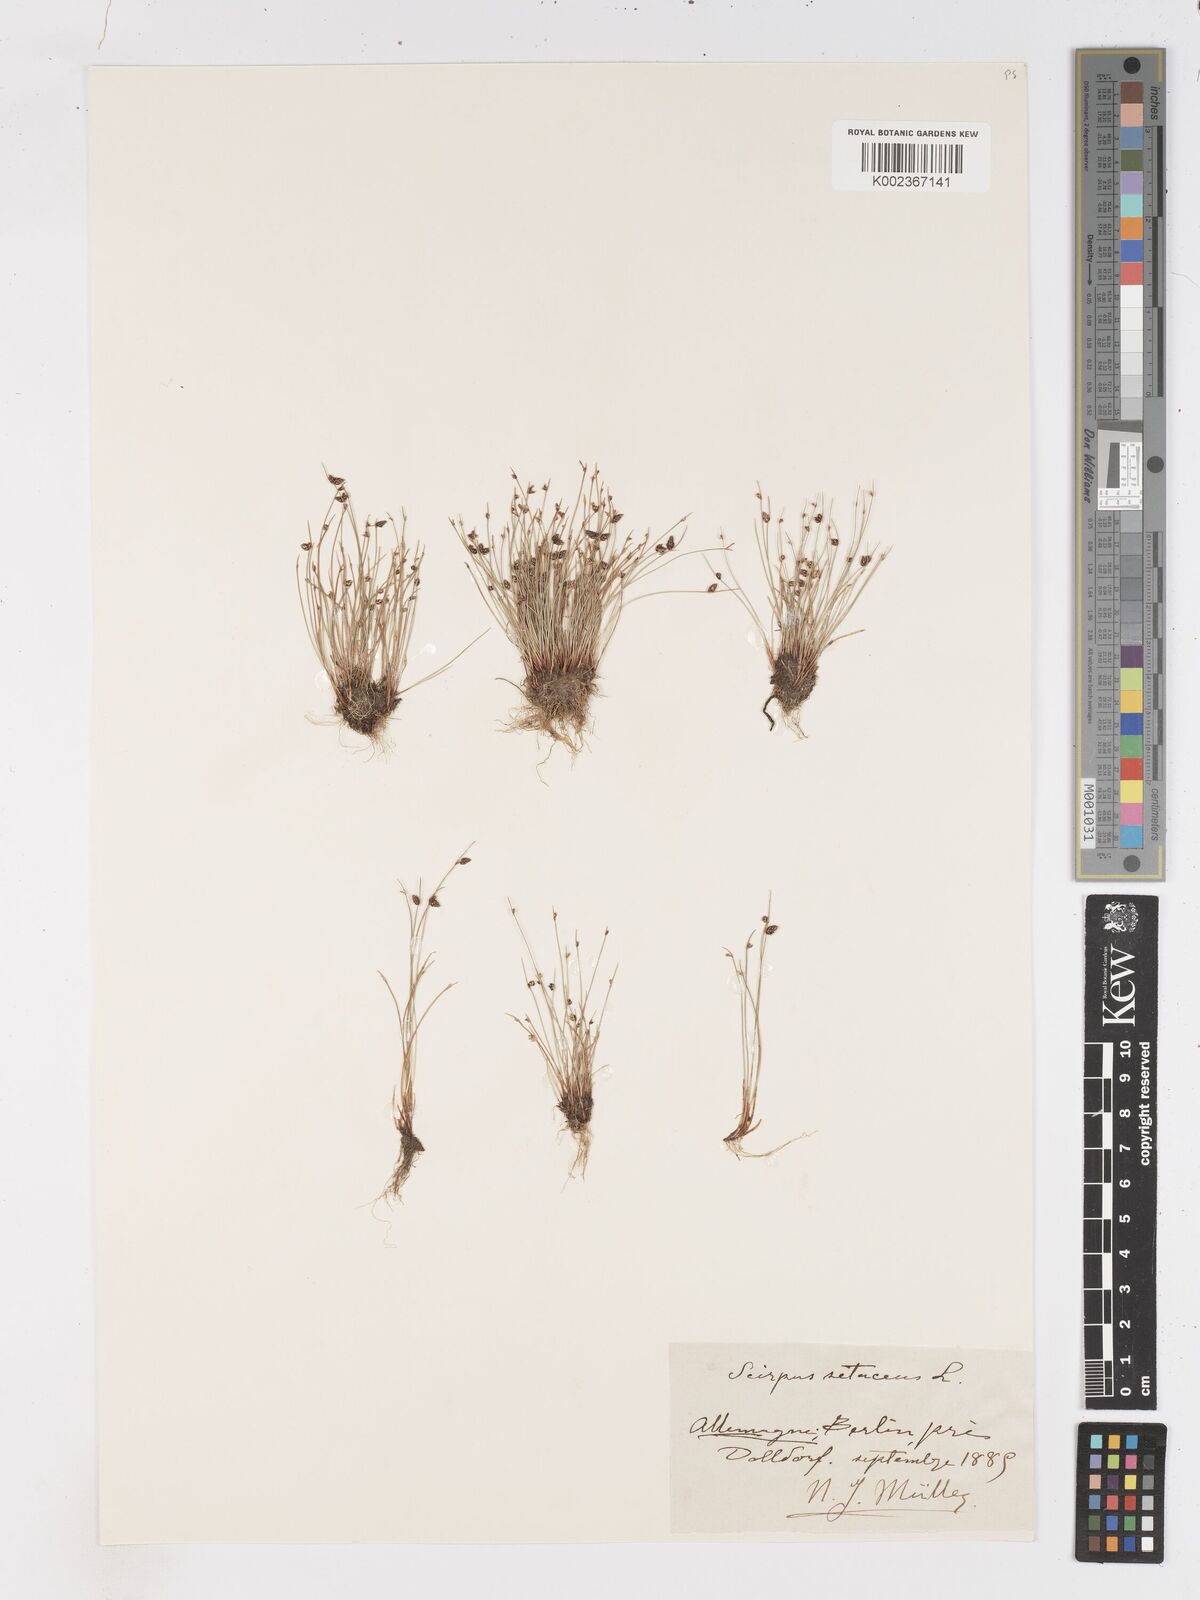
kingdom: Plantae
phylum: Tracheophyta
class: Liliopsida
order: Poales
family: Cyperaceae
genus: Isolepis
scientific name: Isolepis setacea
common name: Bristle club-rush
